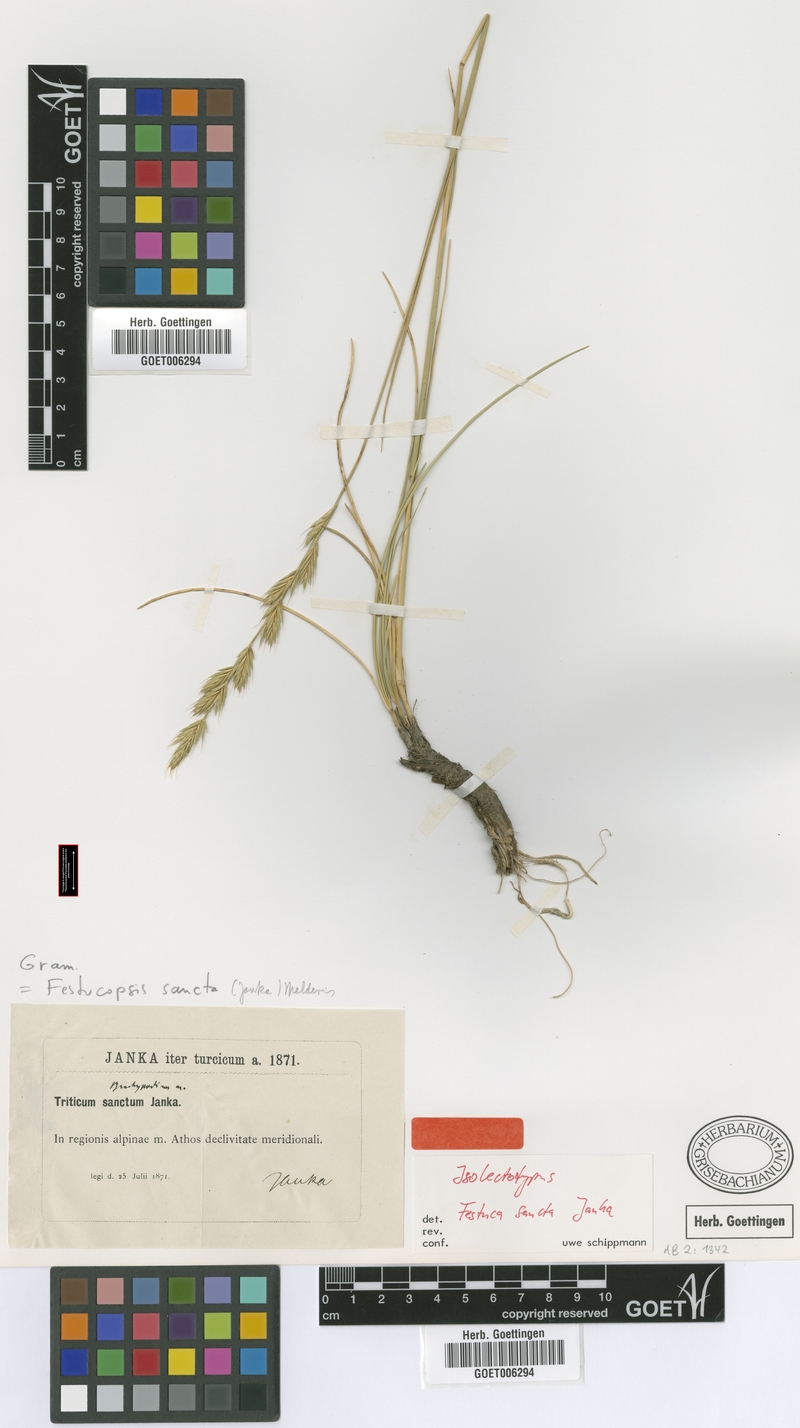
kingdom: Plantae
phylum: Tracheophyta
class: Liliopsida
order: Poales
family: Poaceae
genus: Peridictyon
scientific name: Peridictyon sanctum
